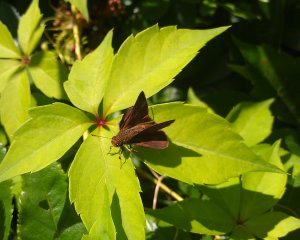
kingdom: Animalia
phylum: Arthropoda
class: Insecta
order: Lepidoptera
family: Hesperiidae
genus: Euphyes
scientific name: Euphyes vestris
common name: Dun Skipper
